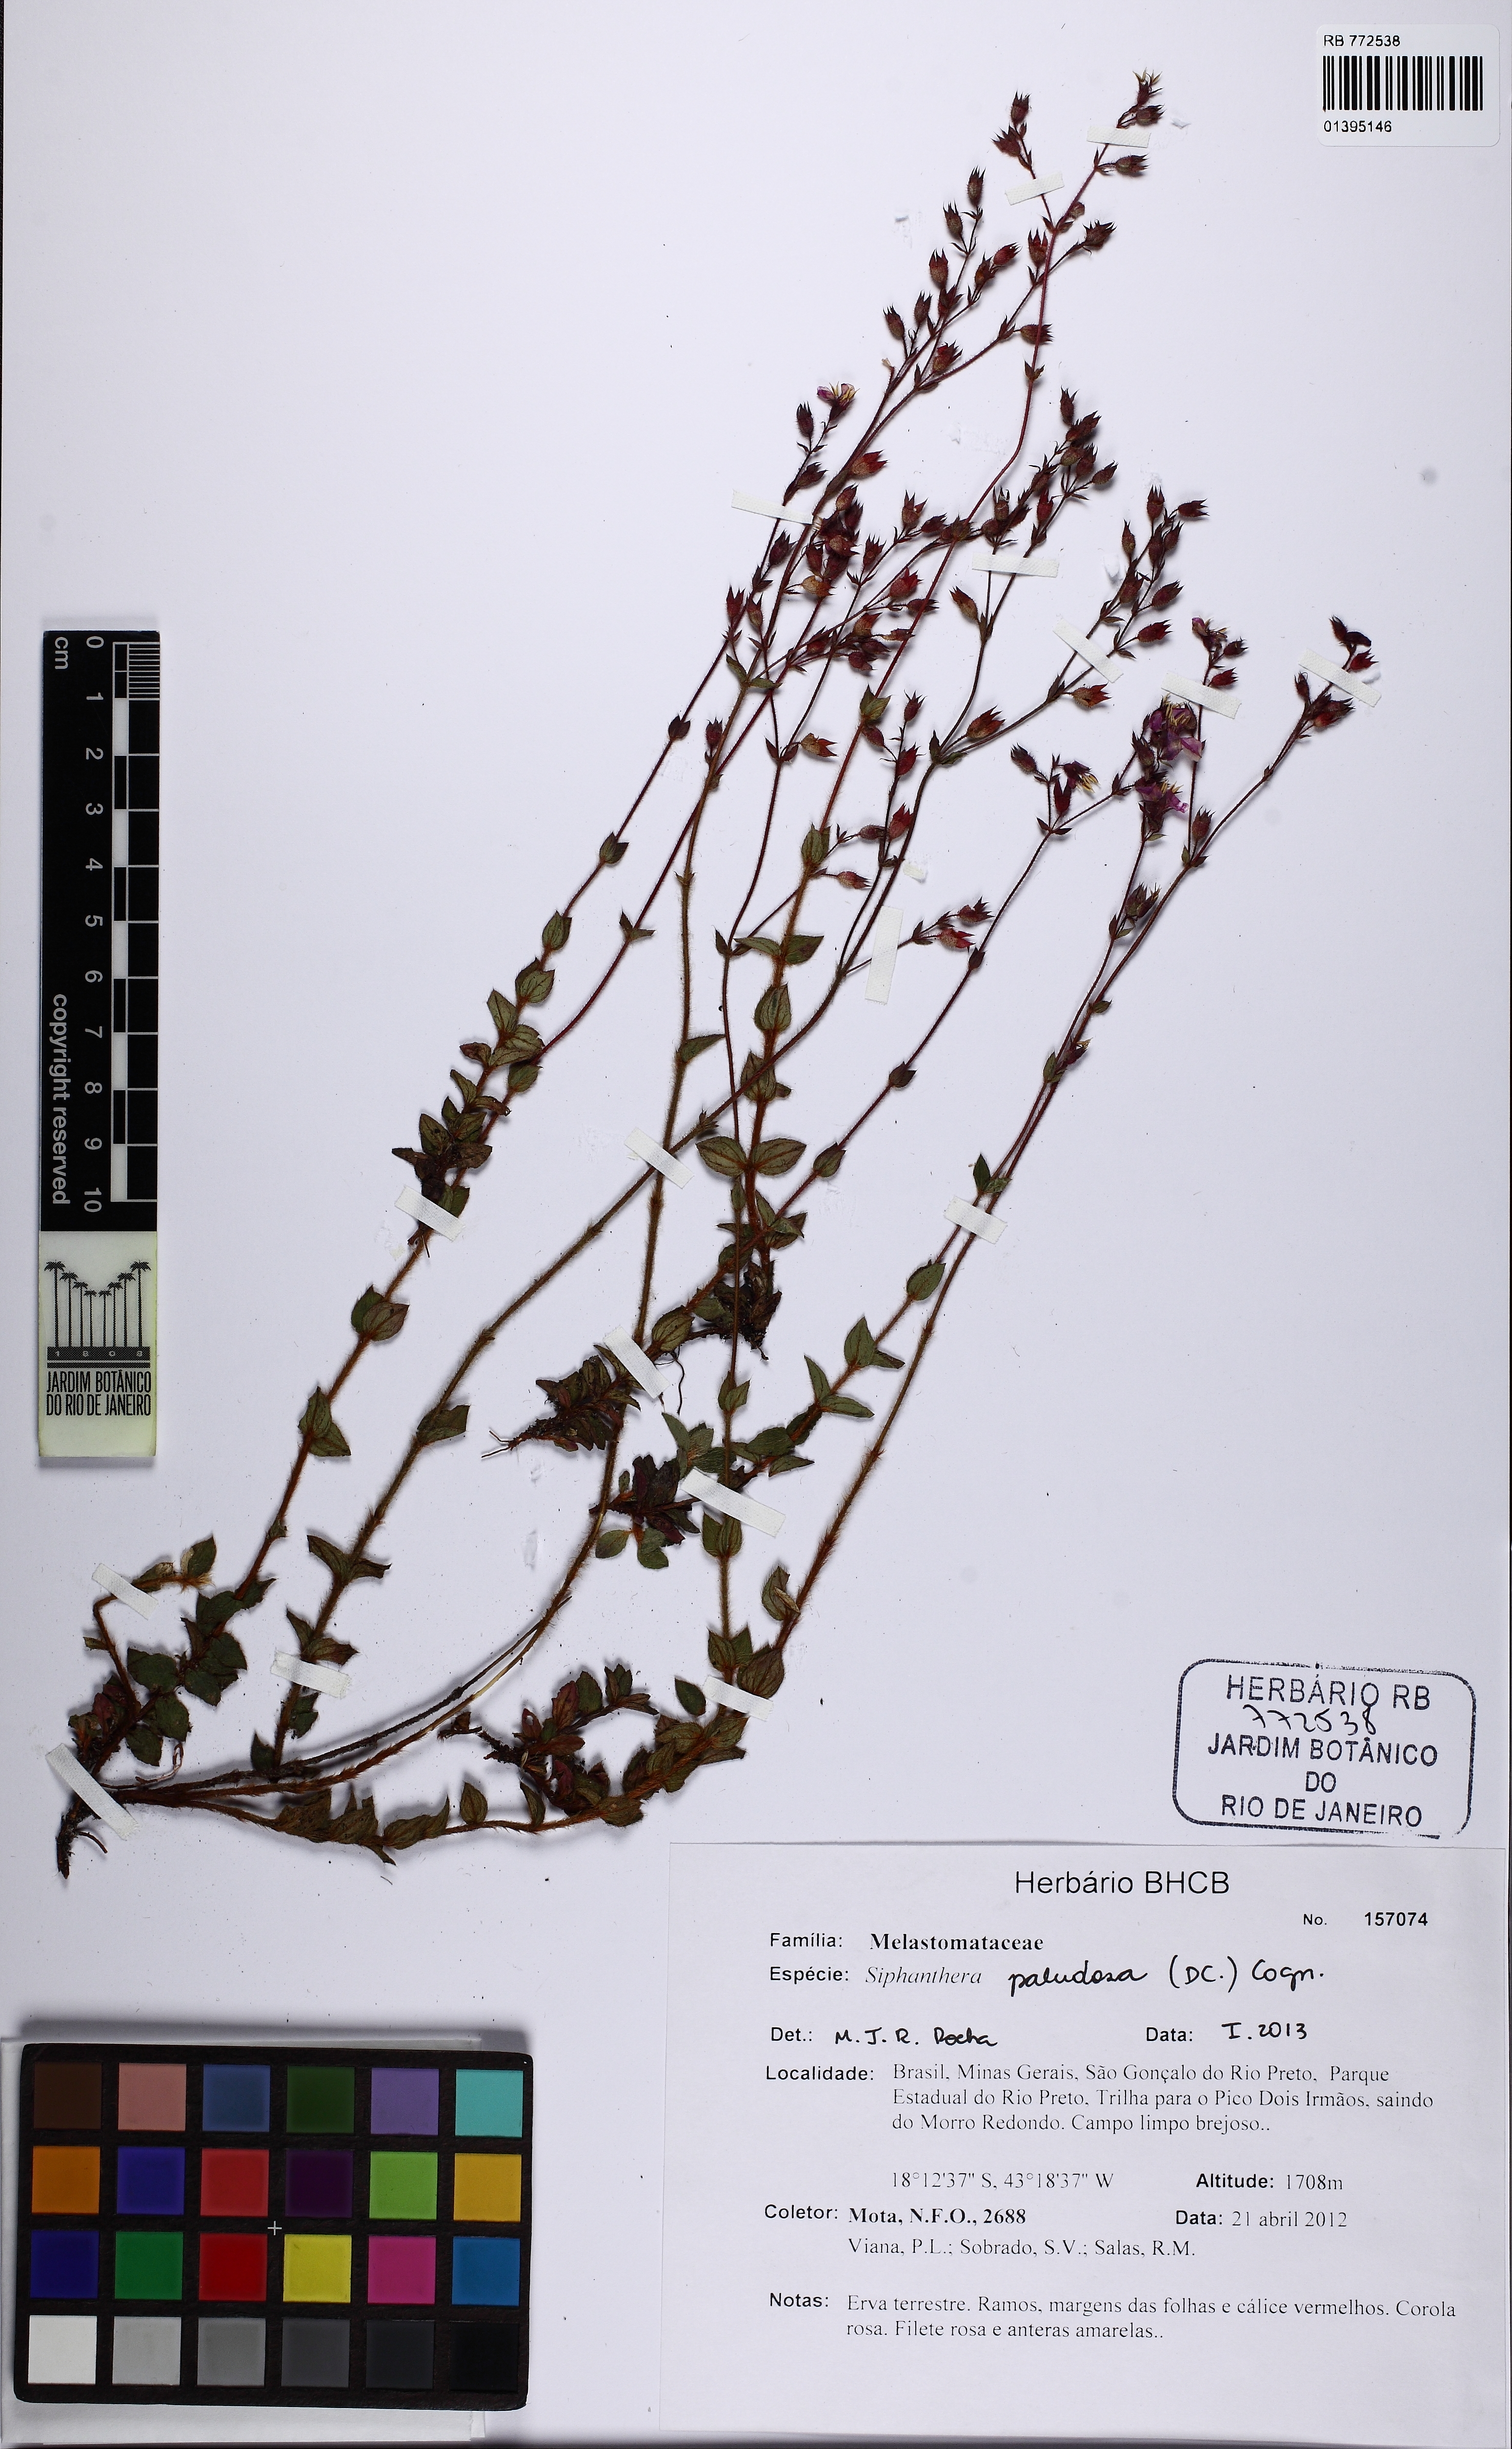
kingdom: Plantae
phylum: Tracheophyta
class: Magnoliopsida
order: Myrtales
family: Melastomataceae
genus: Siphanthera
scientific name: Siphanthera paludosa
